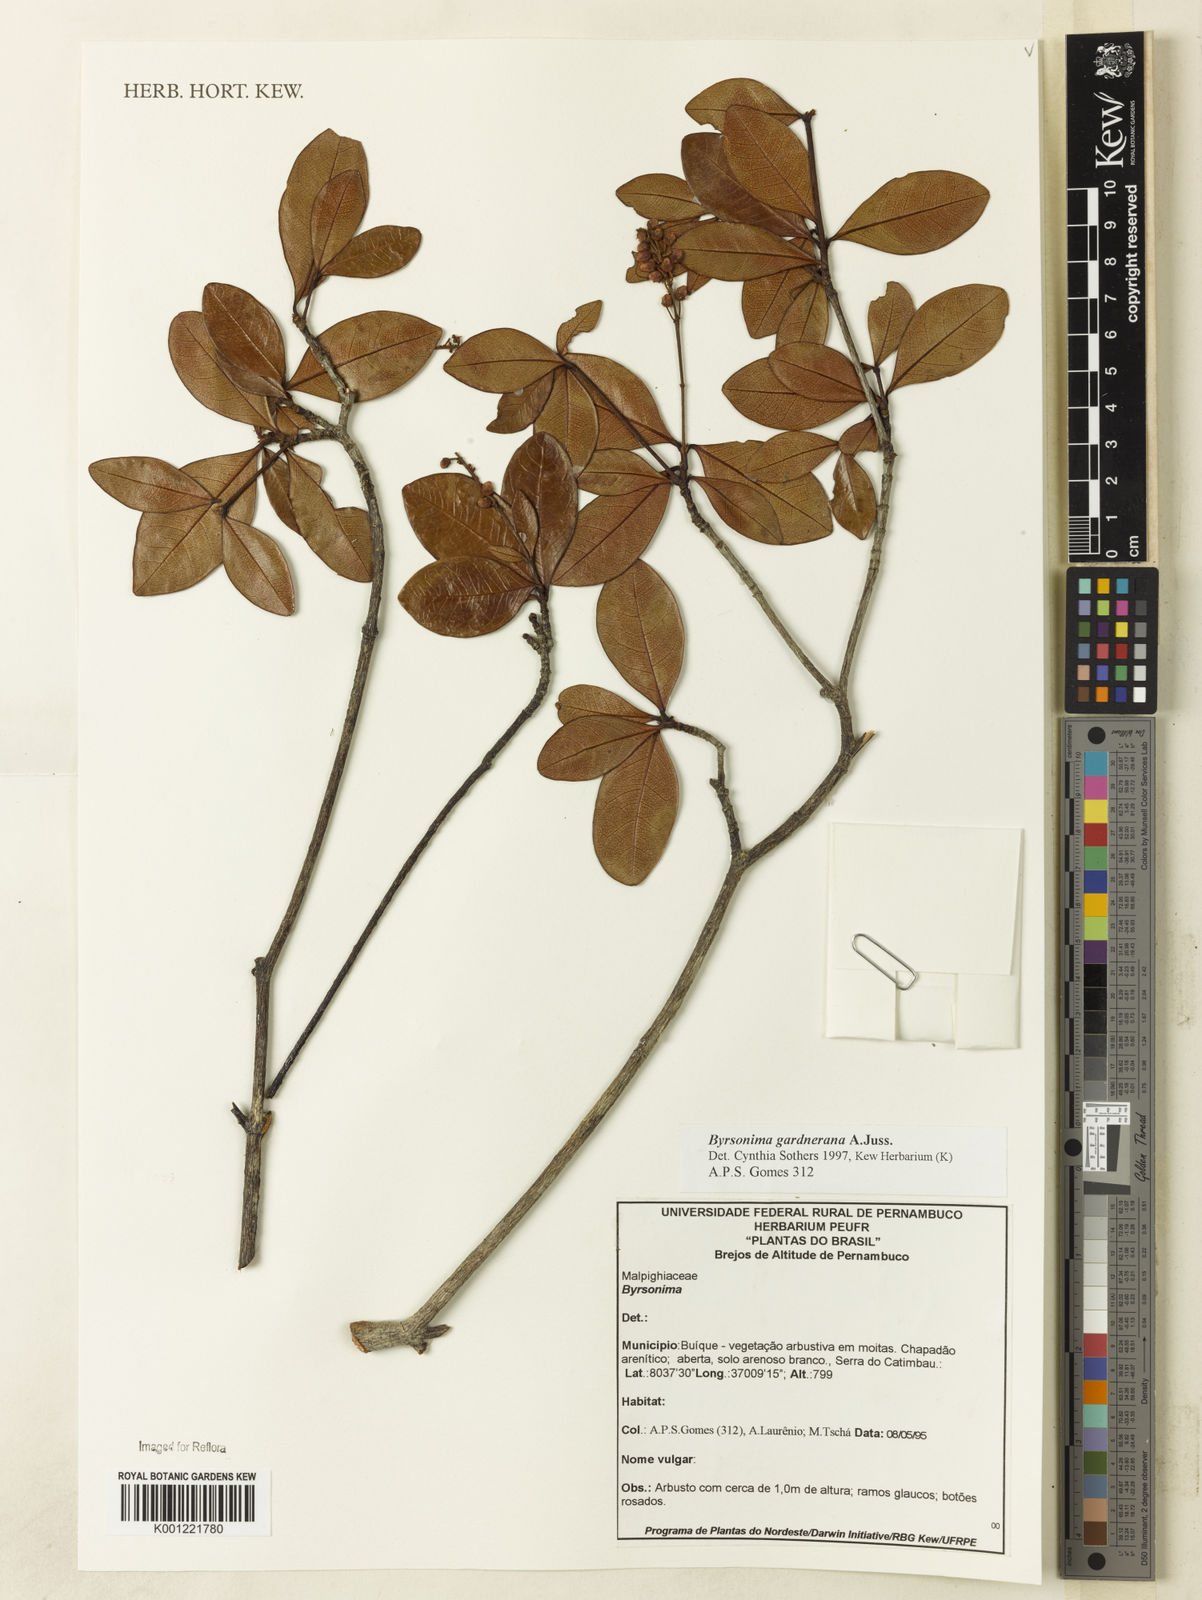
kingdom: Plantae
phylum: Tracheophyta
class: Magnoliopsida
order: Malpighiales
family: Malpighiaceae
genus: Byrsonima
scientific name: Byrsonima gardneriana
